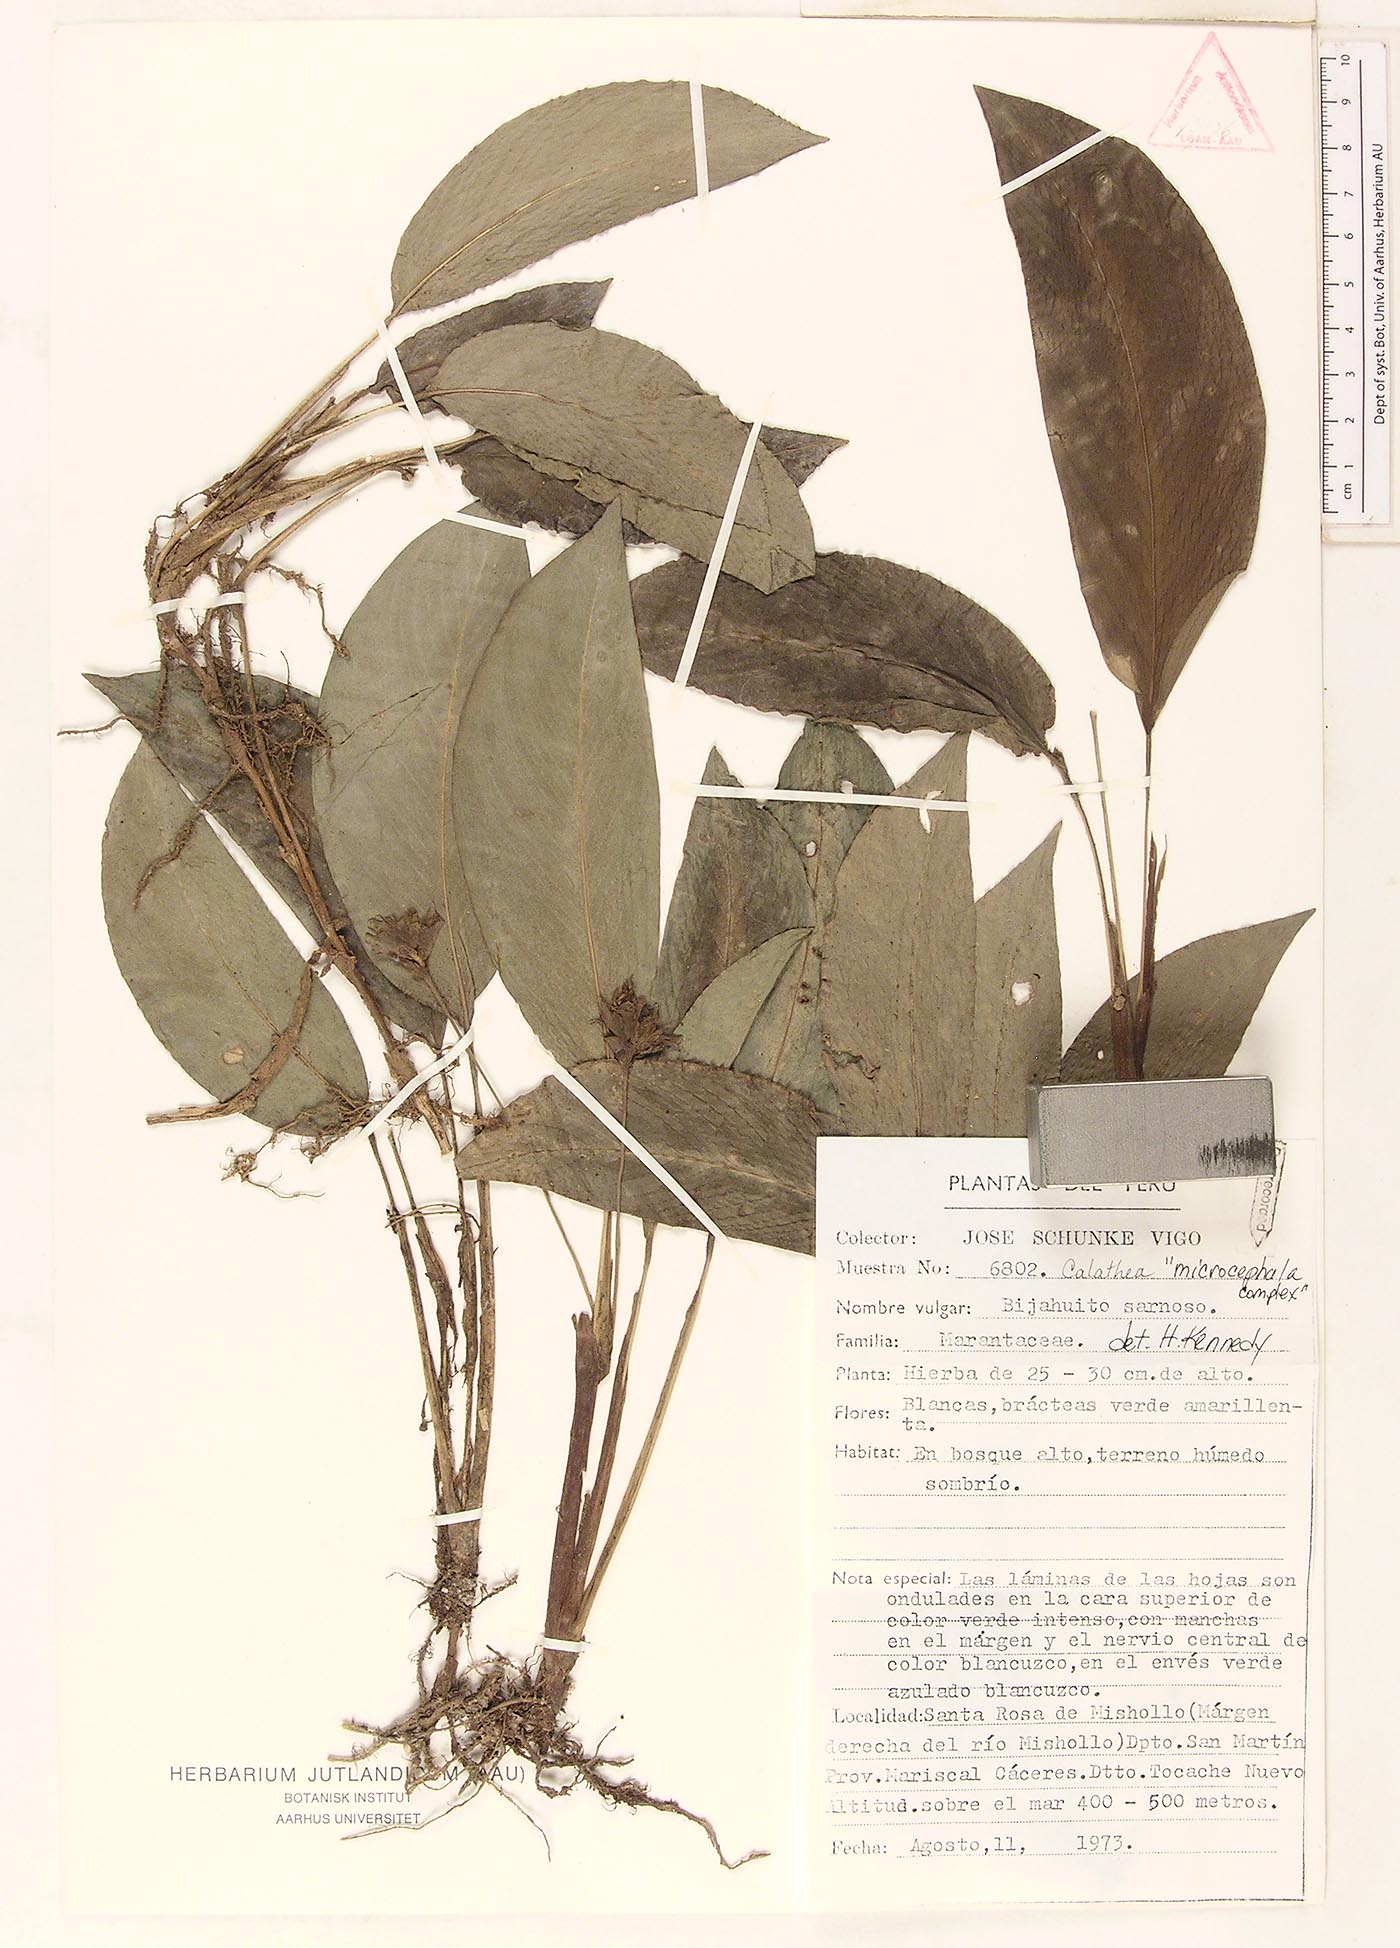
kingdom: Plantae
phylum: Tracheophyta
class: Liliopsida
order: Zingiberales
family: Marantaceae
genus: Goeppertia
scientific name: Goeppertia microcephala
